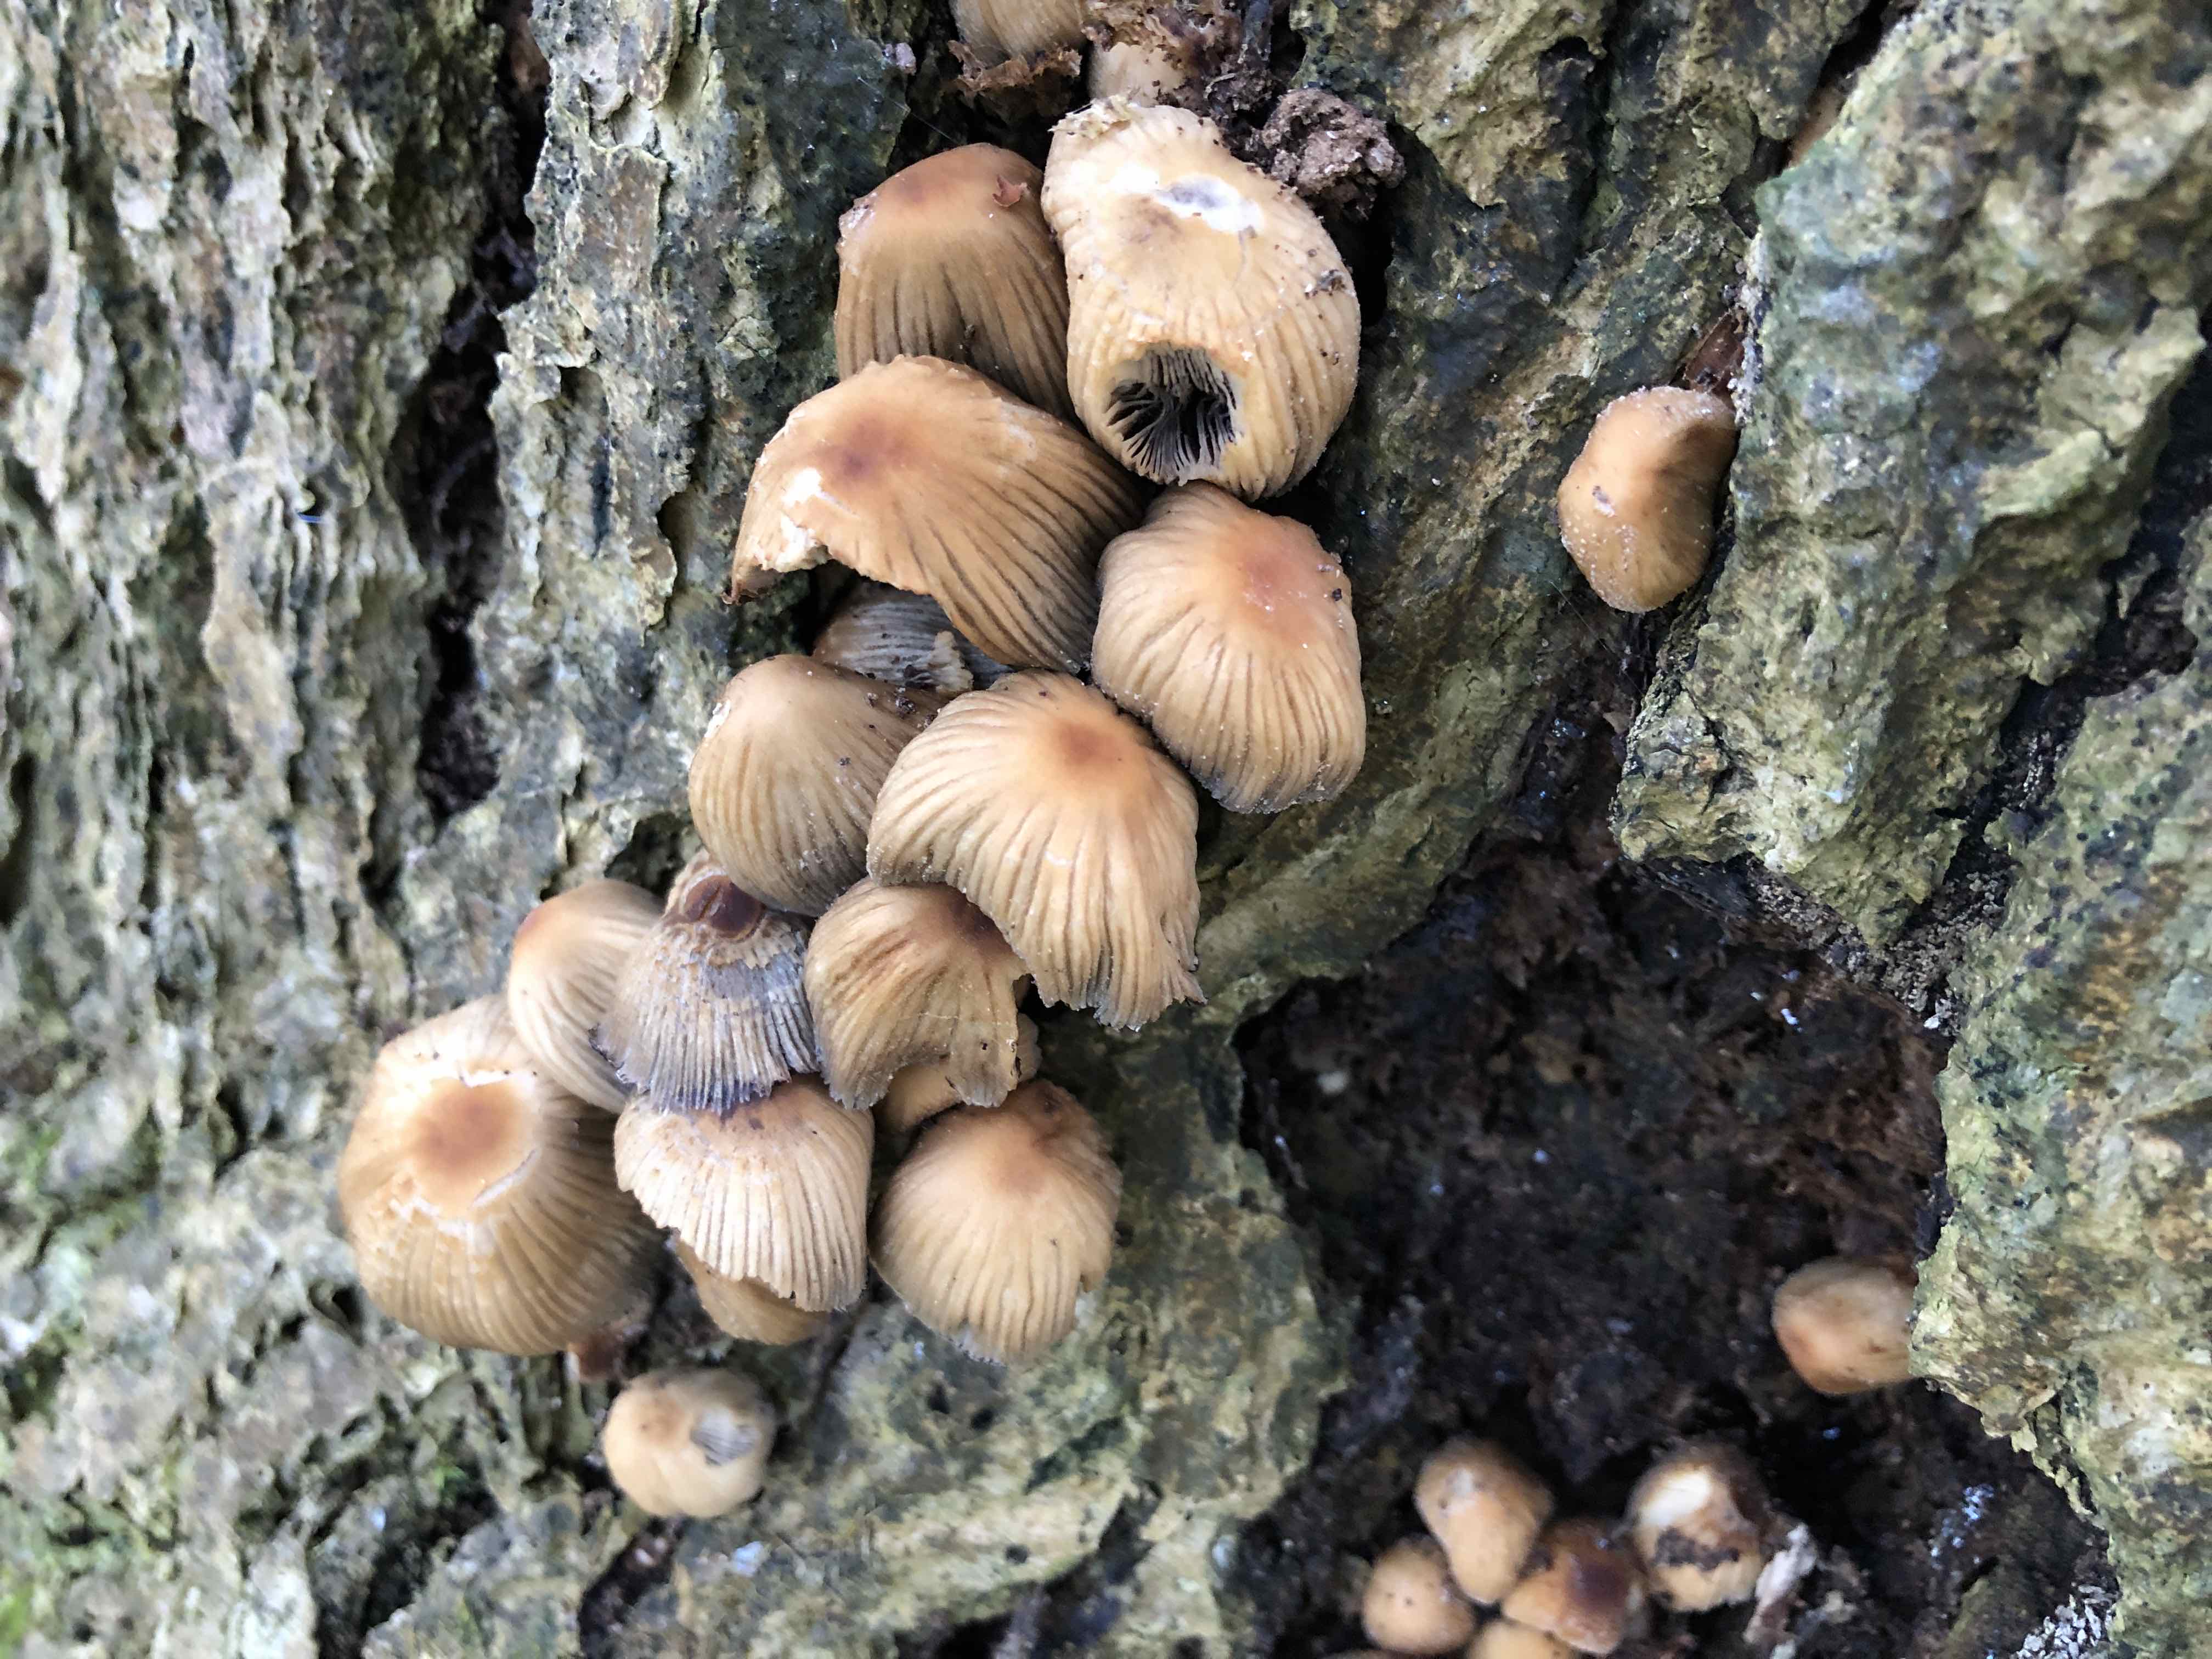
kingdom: Fungi
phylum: Basidiomycota
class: Agaricomycetes
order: Agaricales
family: Psathyrellaceae
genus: Coprinellus
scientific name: Coprinellus micaceus
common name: glimmer-blækhat
